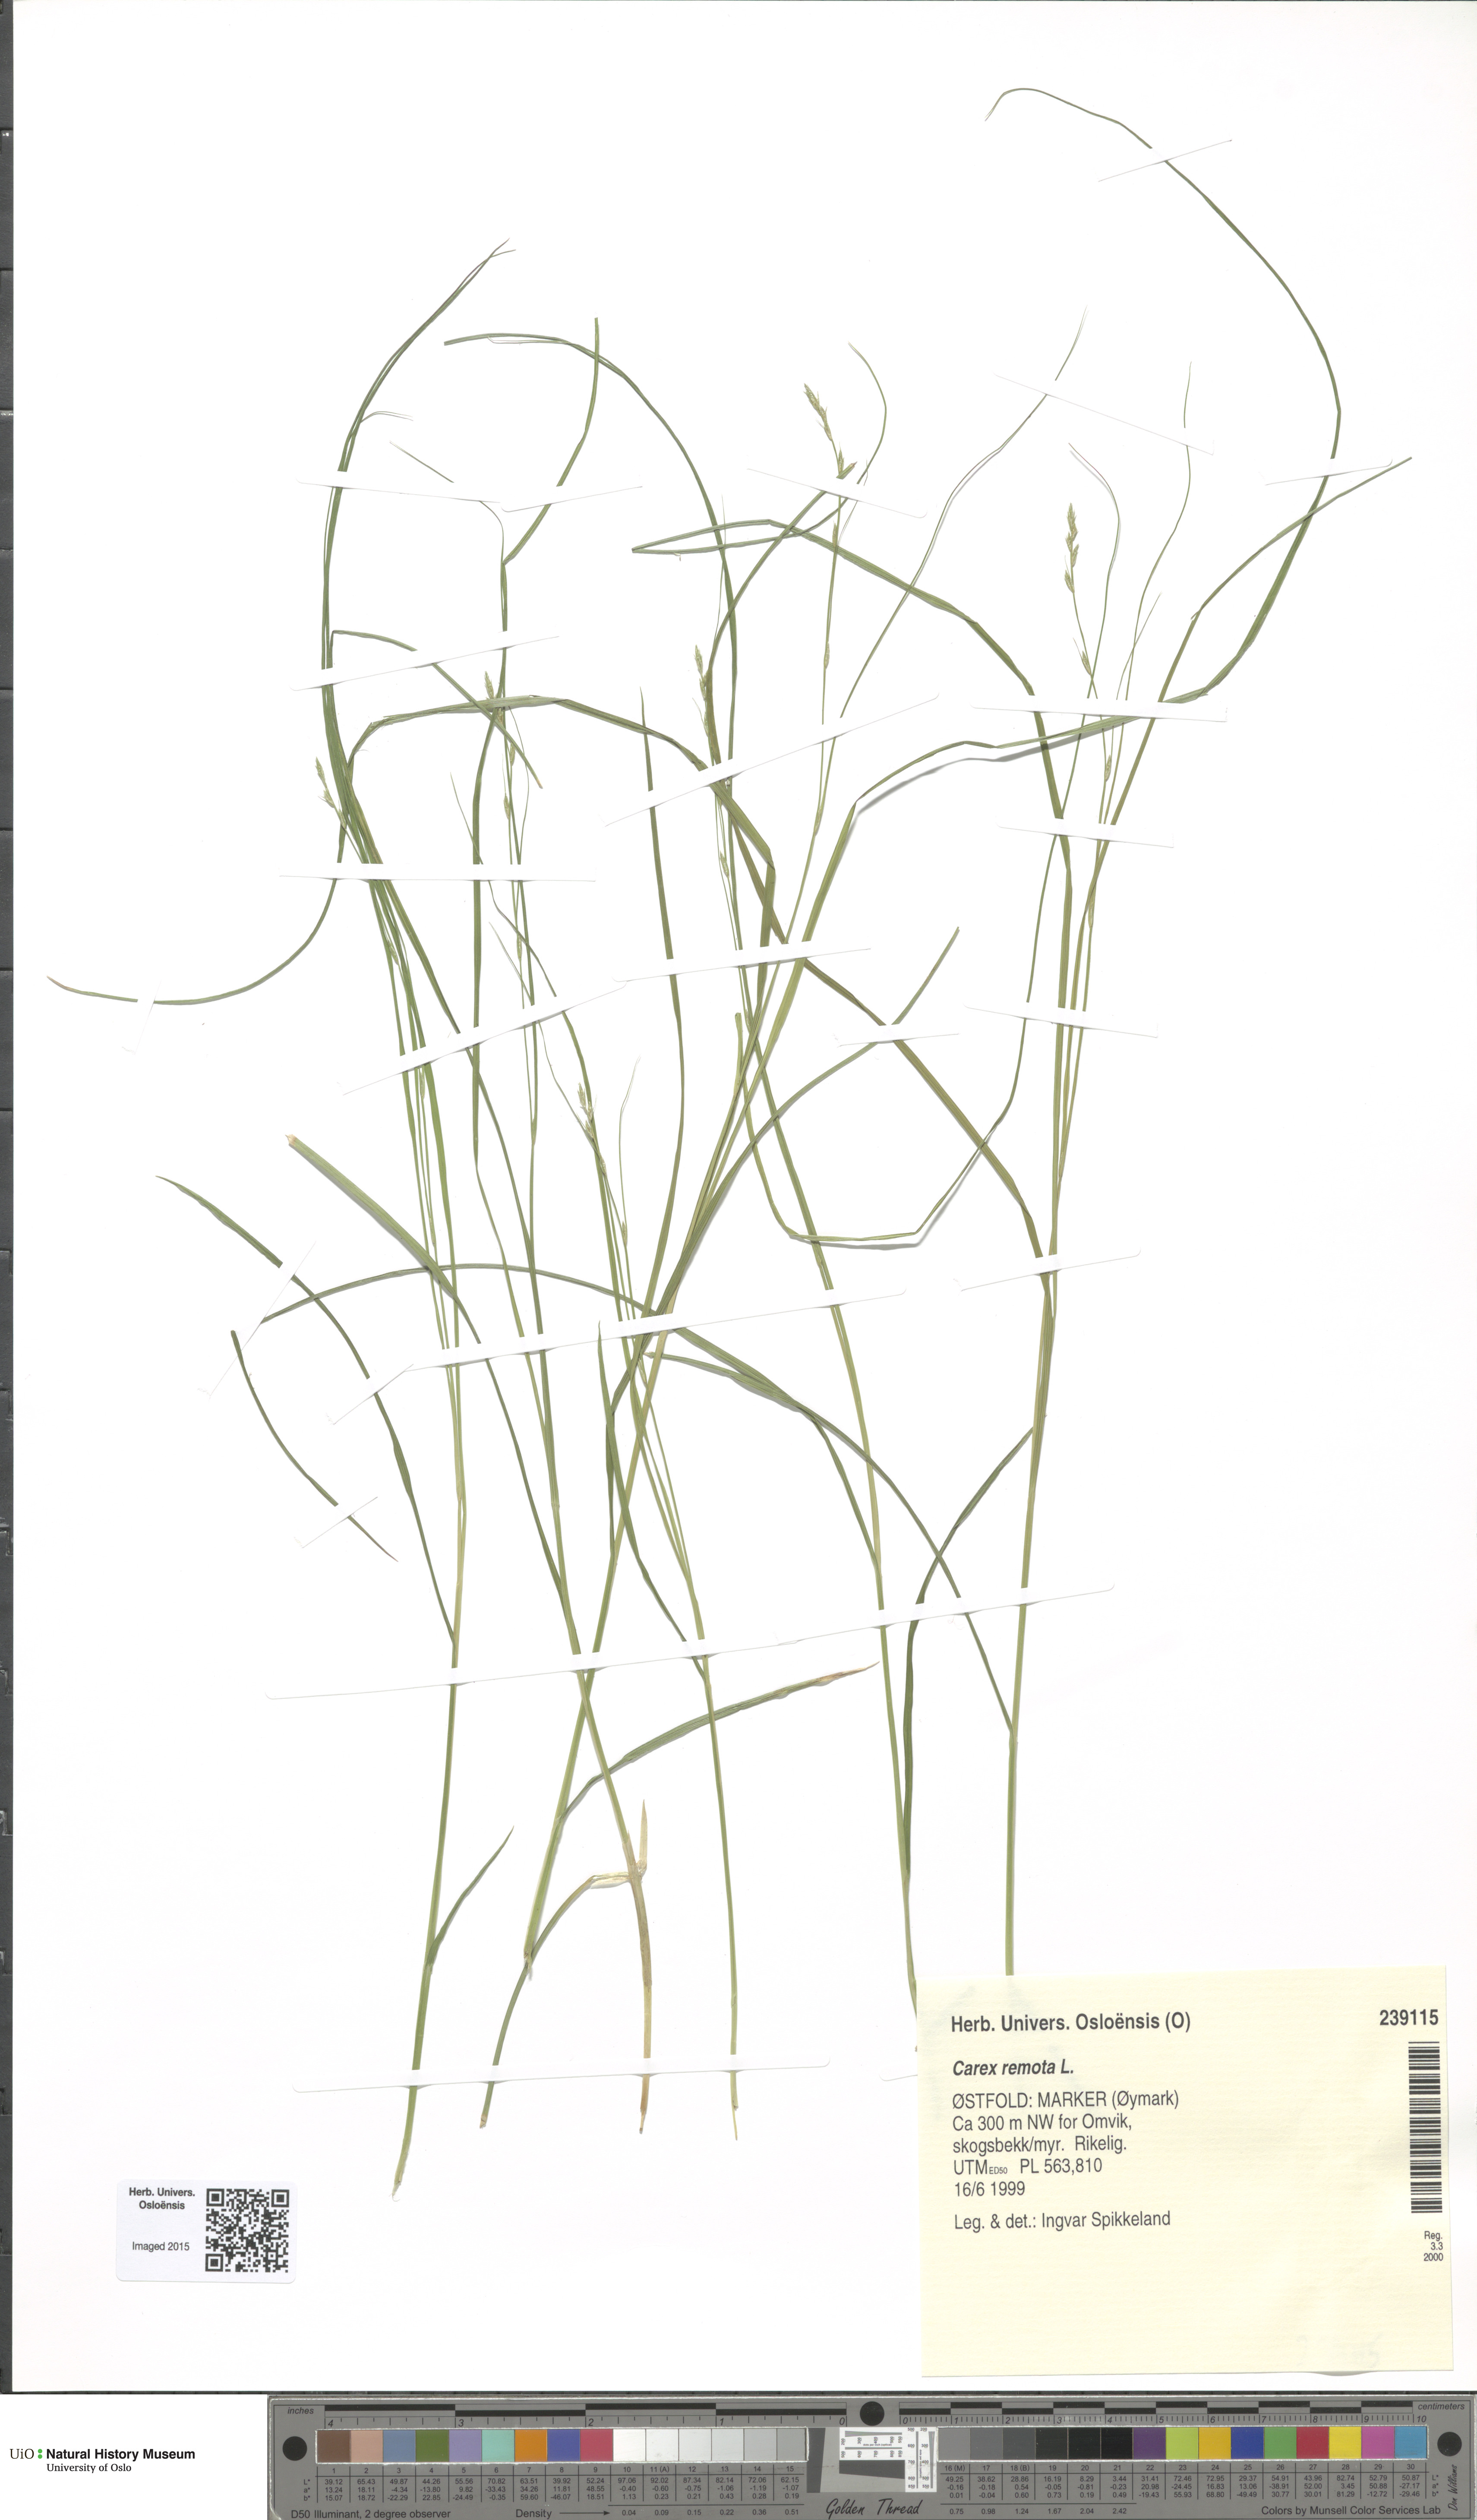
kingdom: Plantae
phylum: Tracheophyta
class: Liliopsida
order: Poales
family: Cyperaceae
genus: Carex
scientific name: Carex remota
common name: Remote sedge
